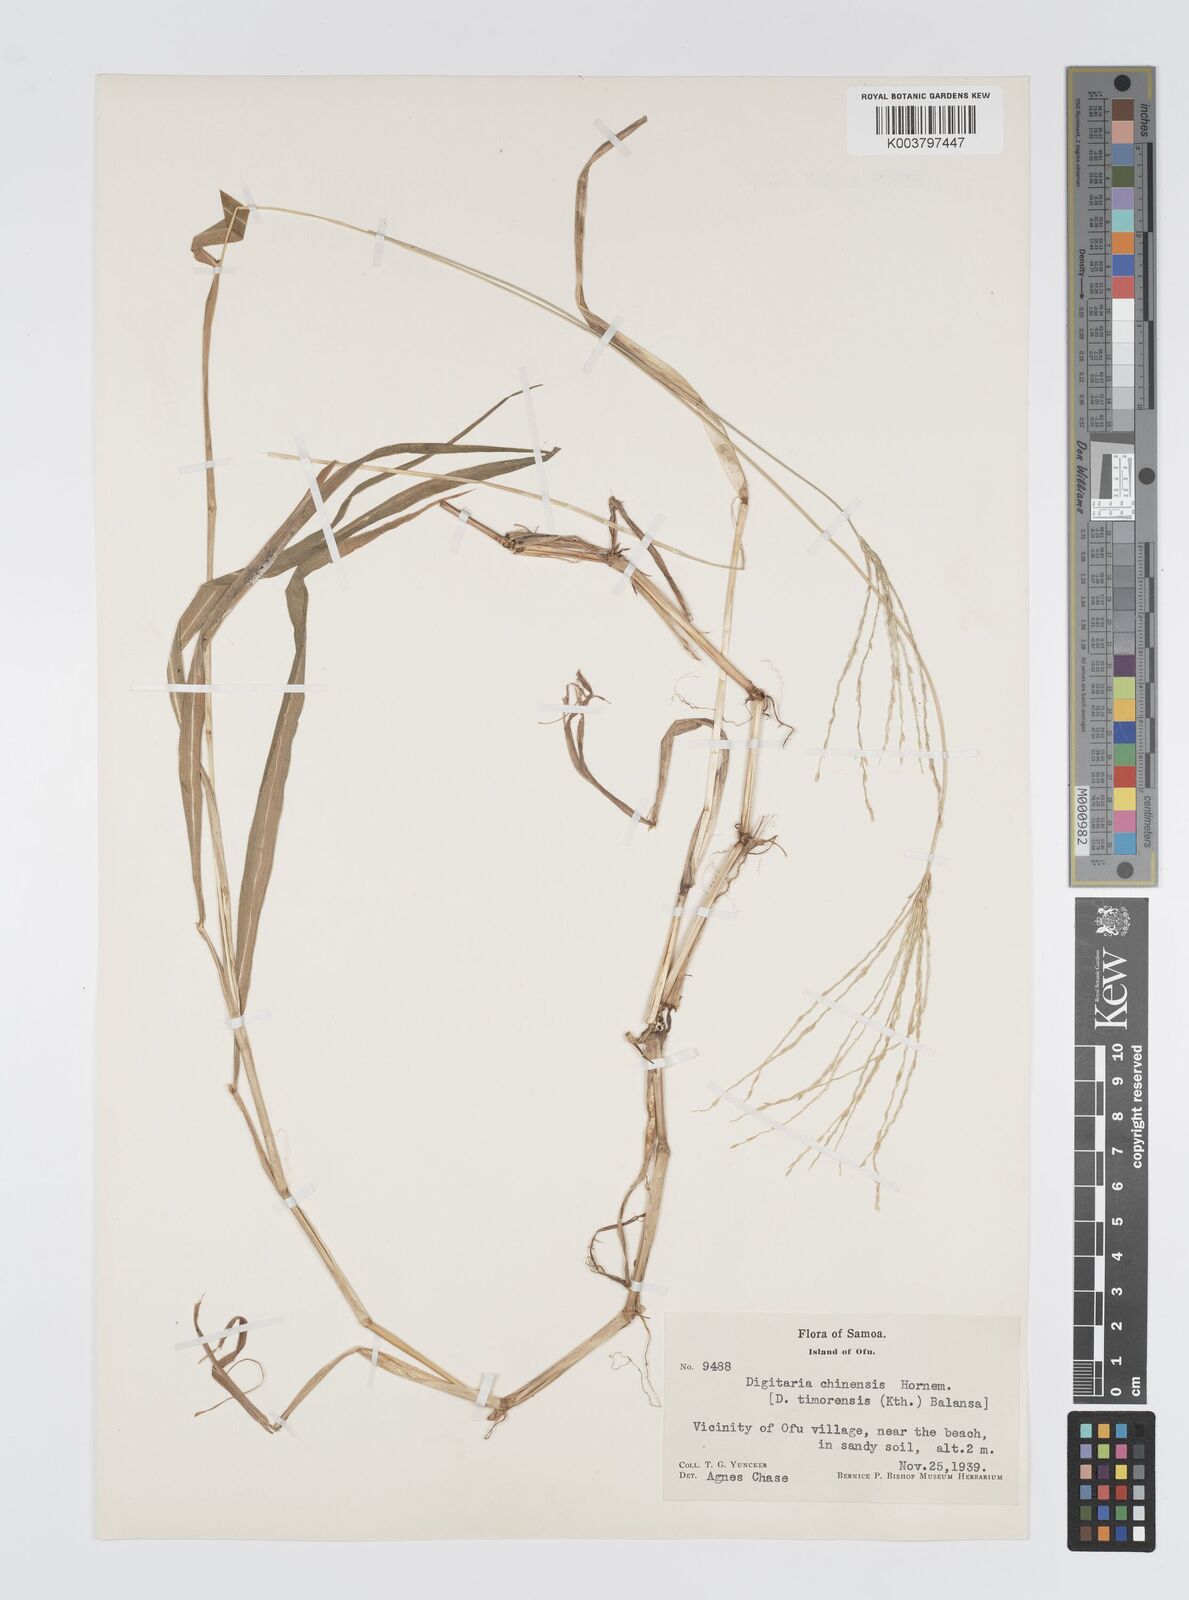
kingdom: Plantae
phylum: Tracheophyta
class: Liliopsida
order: Poales
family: Poaceae
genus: Digitaria
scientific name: Digitaria setigera
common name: East indian crabgrass
